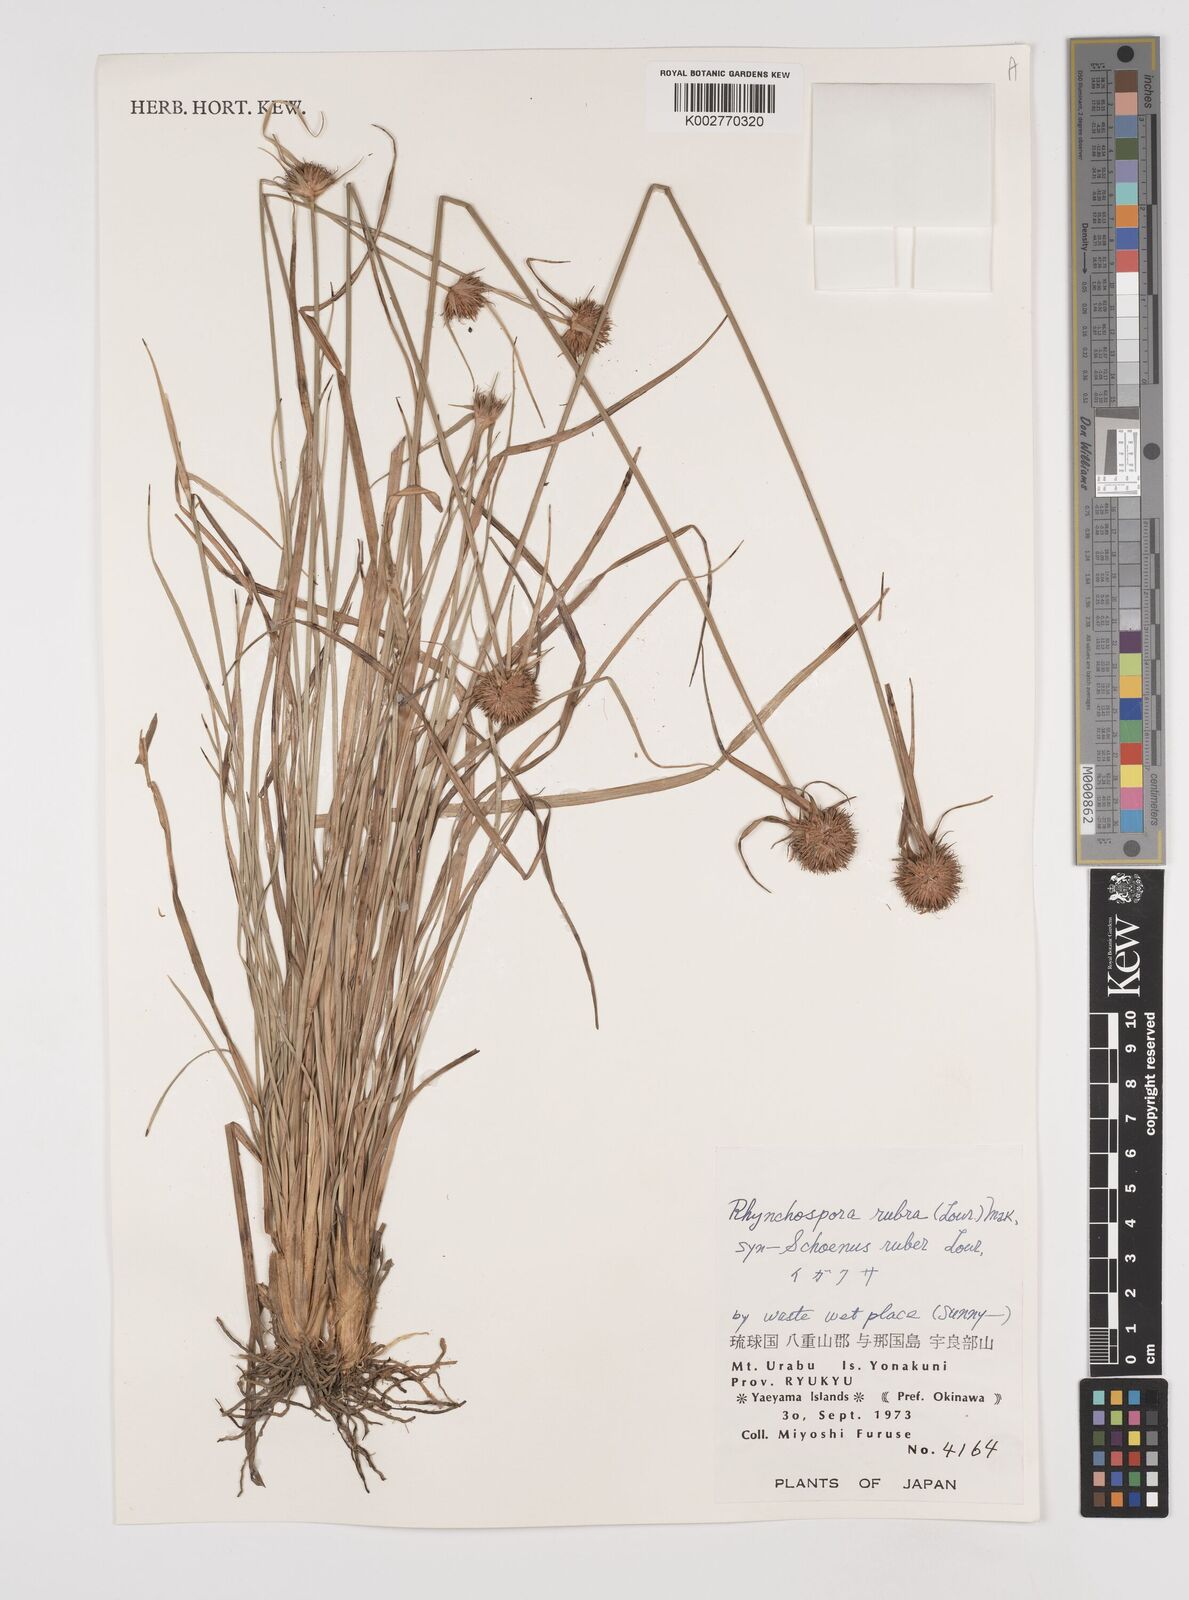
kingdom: Plantae
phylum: Tracheophyta
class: Liliopsida
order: Poales
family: Cyperaceae
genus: Rhynchospora
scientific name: Rhynchospora rubra
